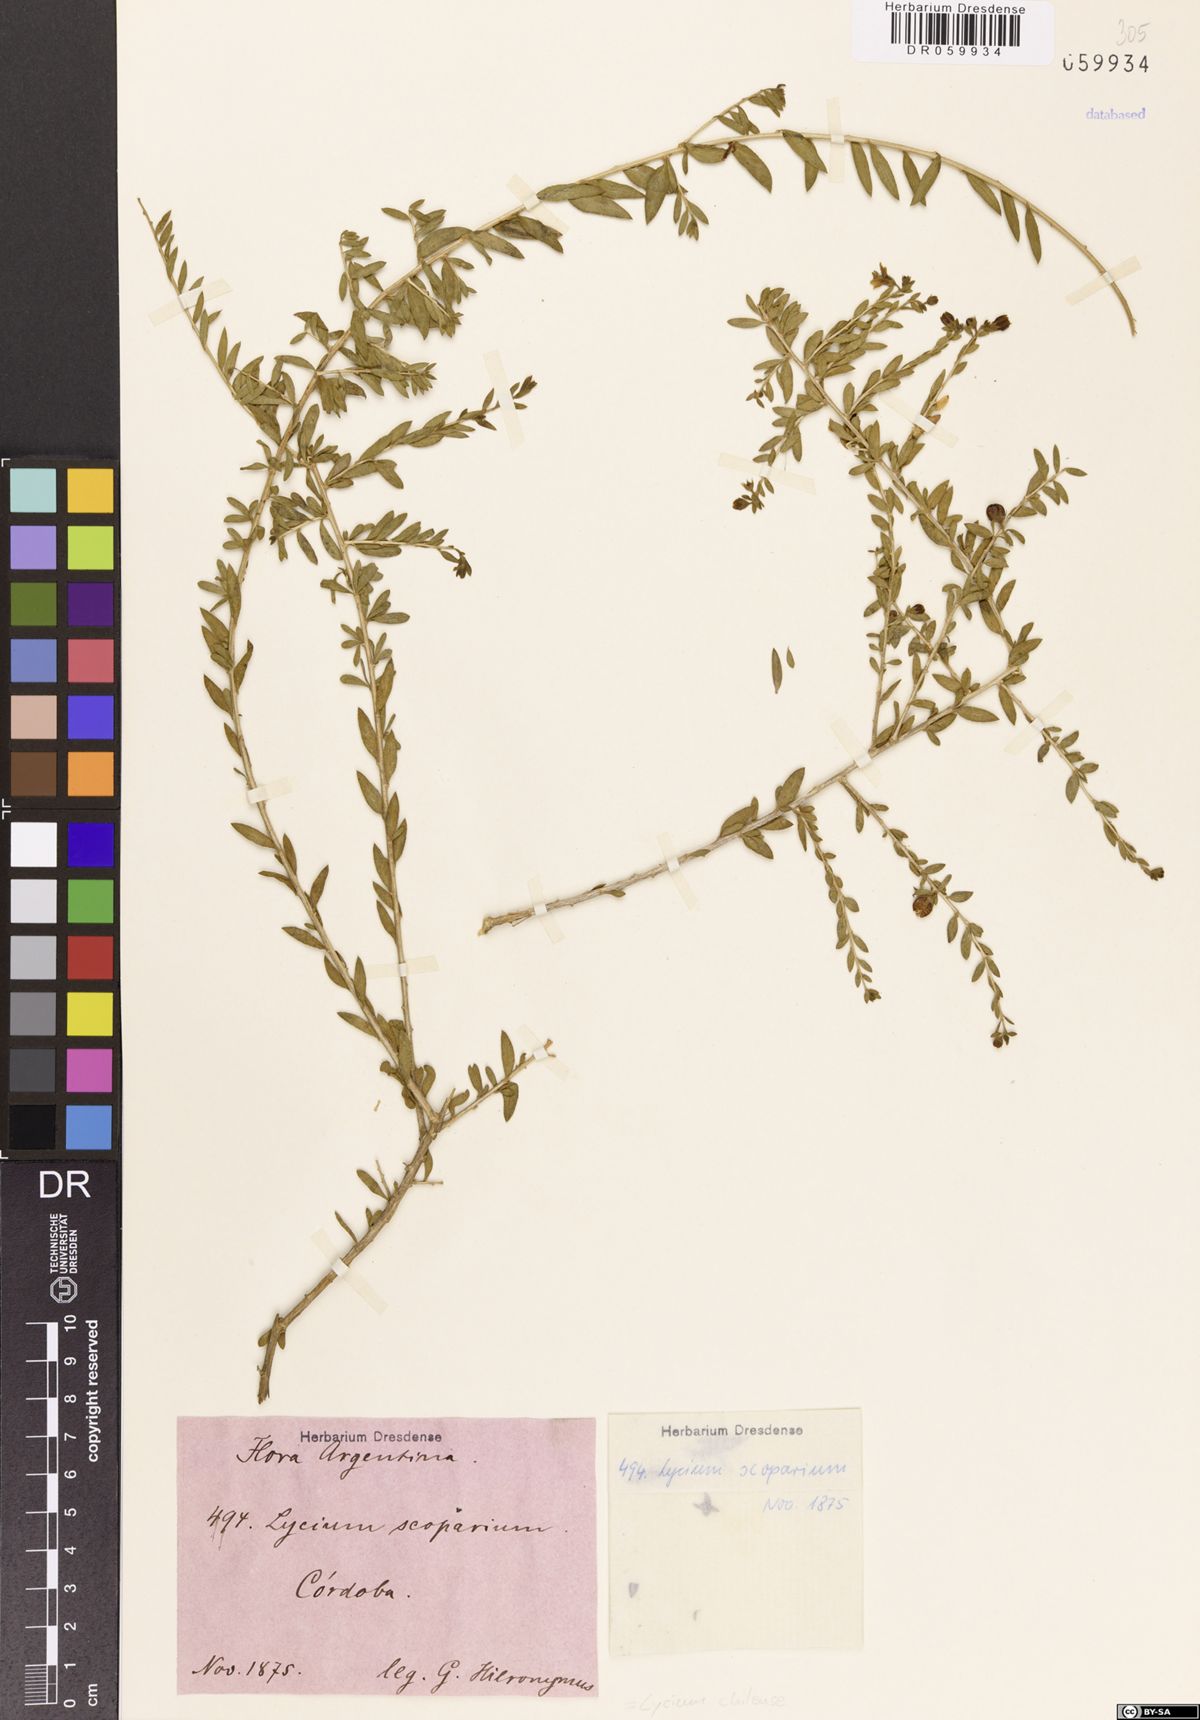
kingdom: Plantae
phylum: Tracheophyta
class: Magnoliopsida
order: Solanales
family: Solanaceae
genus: Lycium
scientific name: Lycium chilense
